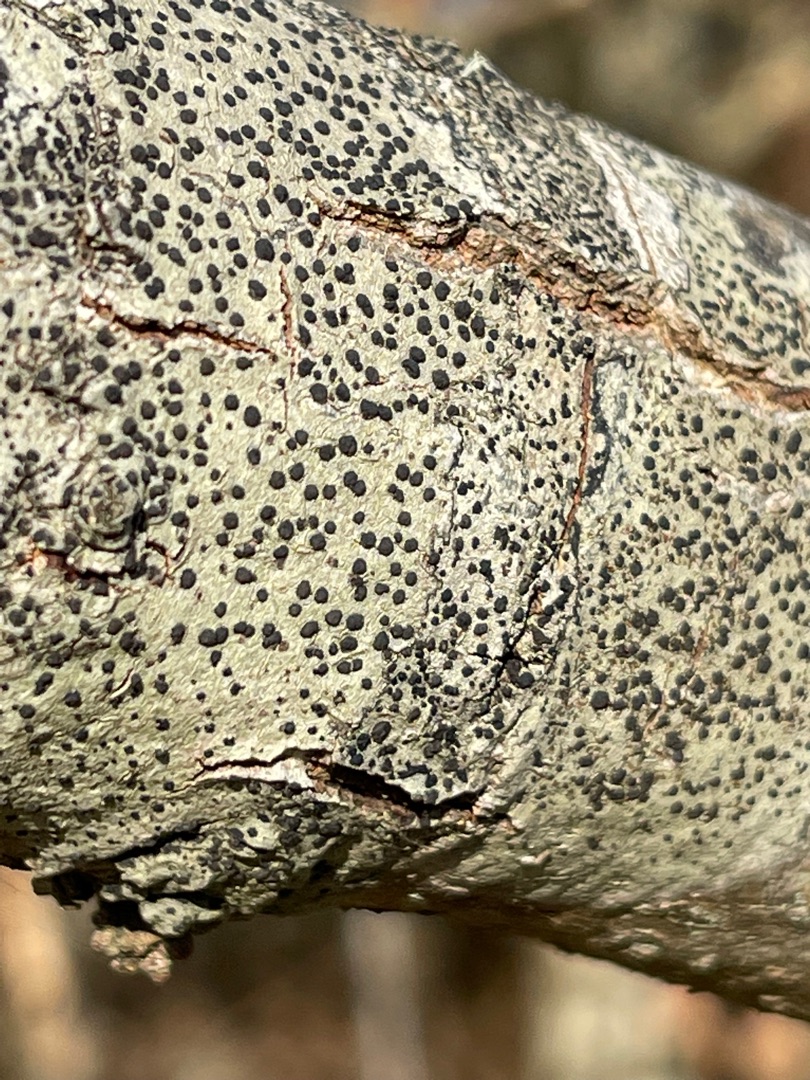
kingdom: Fungi
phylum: Ascomycota
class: Lecanoromycetes
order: Lecanorales
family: Lecanoraceae
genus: Lecidella
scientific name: Lecidella elaeochroma
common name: Grågrøn skivelav
